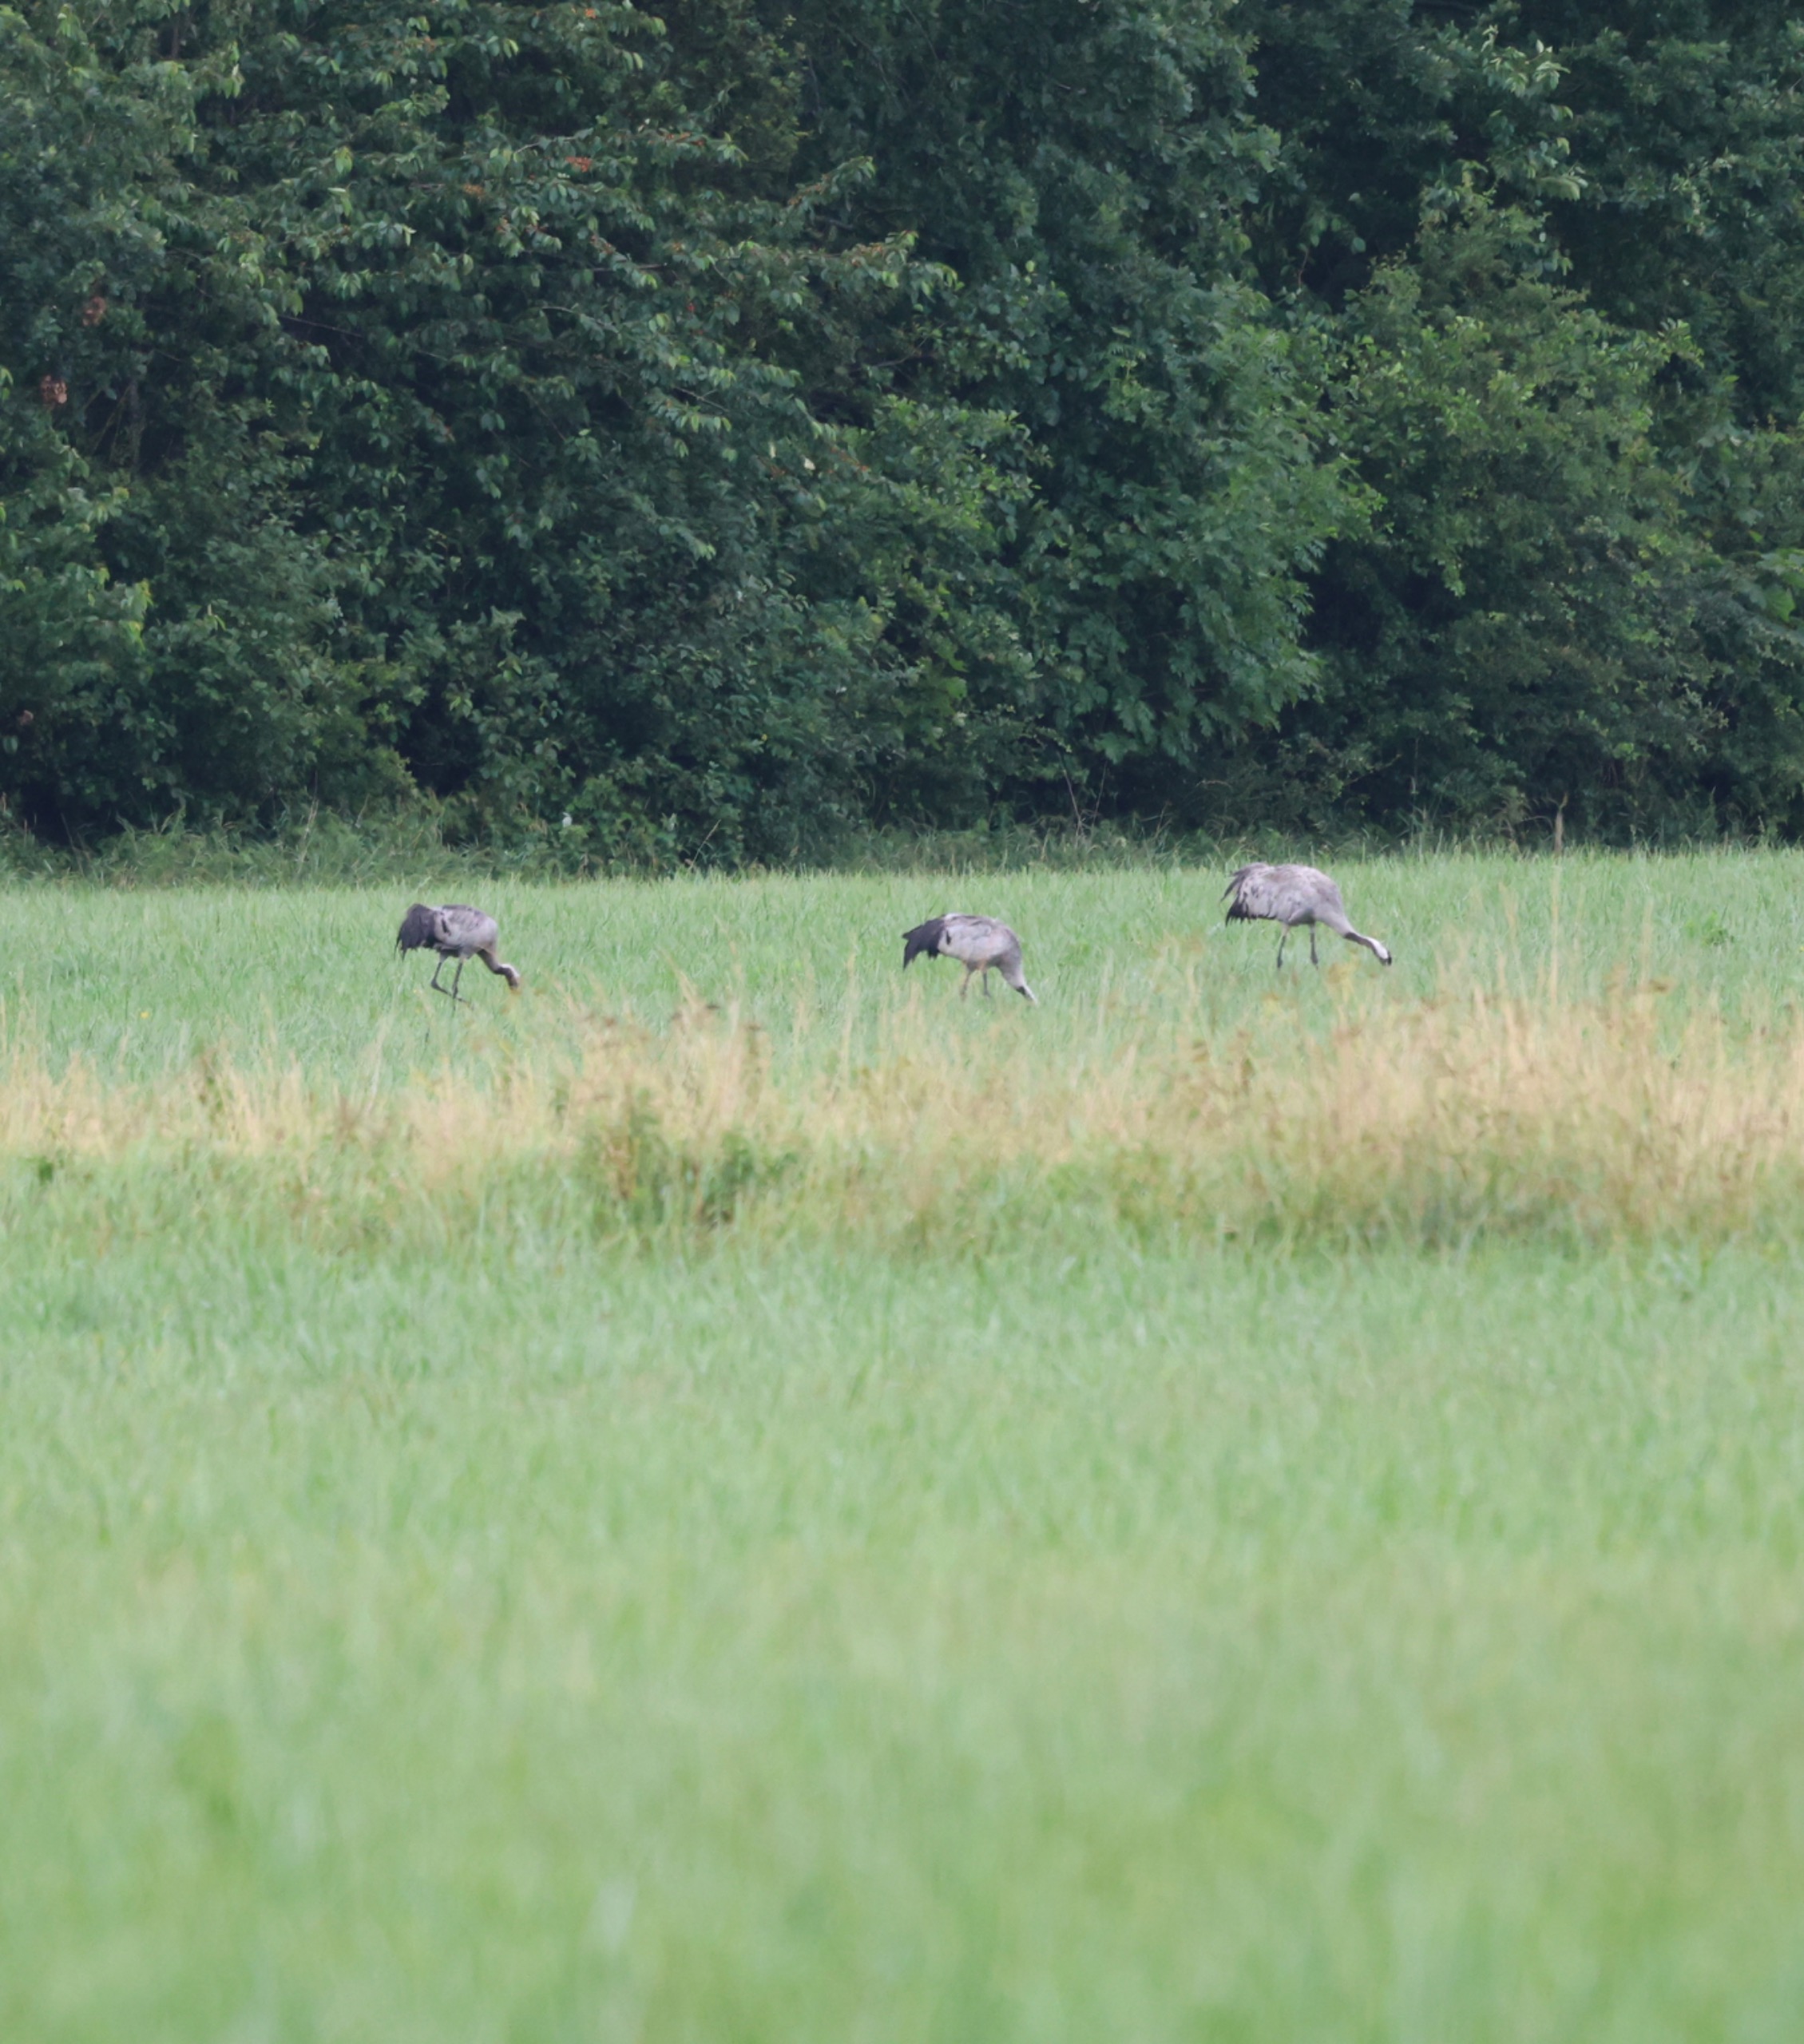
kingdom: Animalia
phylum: Chordata
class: Aves
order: Gruiformes
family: Gruidae
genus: Grus
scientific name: Grus grus
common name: Trane
